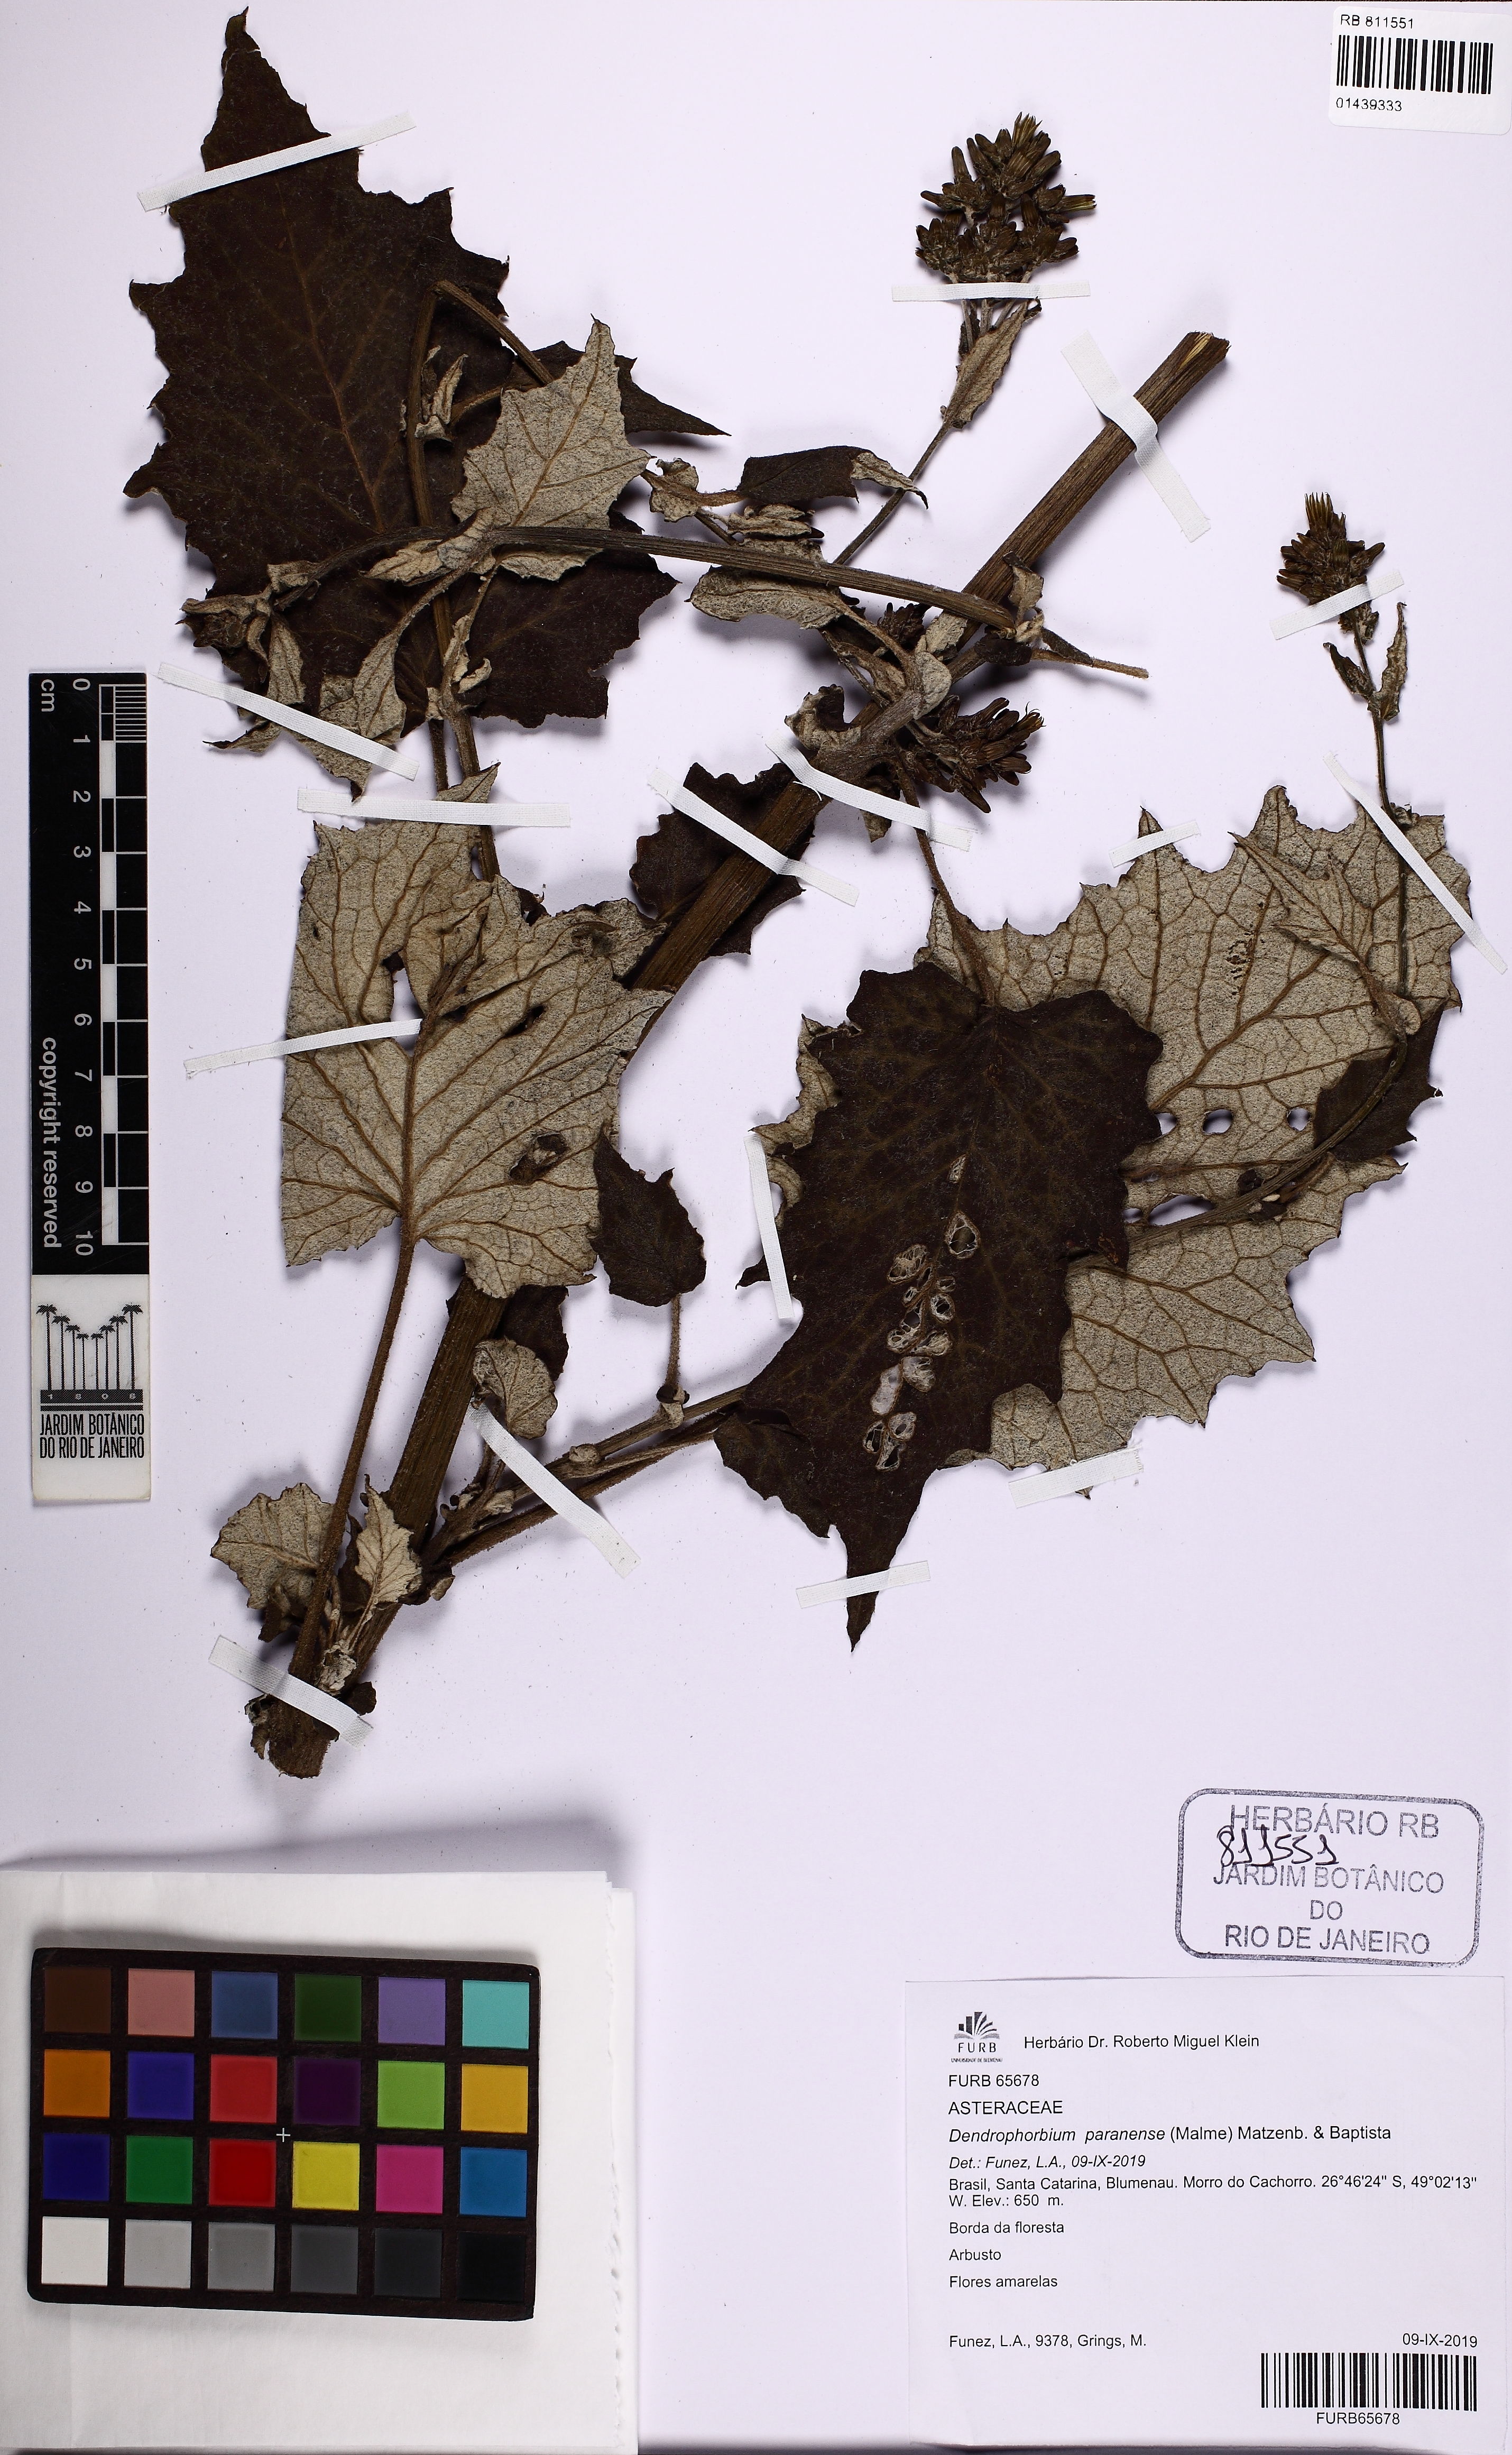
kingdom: Plantae
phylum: Tracheophyta
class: Magnoliopsida
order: Asterales
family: Asteraceae
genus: Dendrophorbium
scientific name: Dendrophorbium paranense
